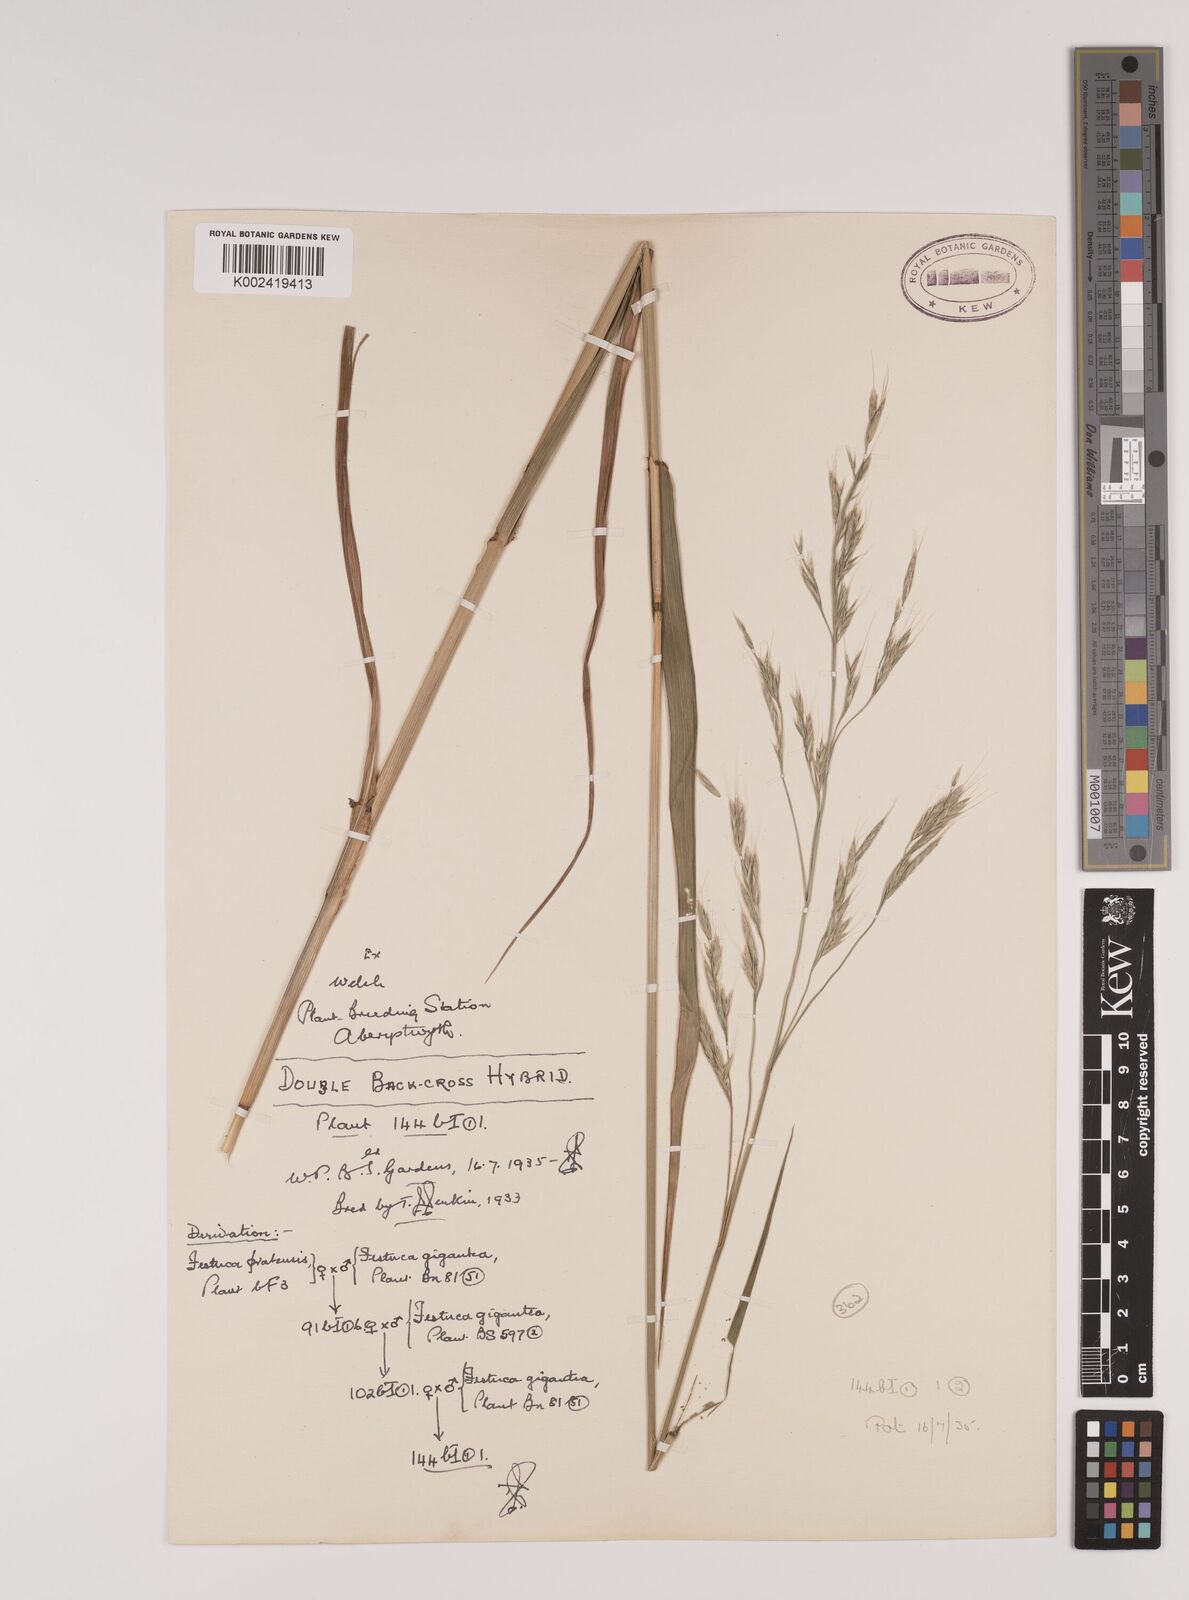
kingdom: Plantae
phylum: Tracheophyta
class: Liliopsida
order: Poales
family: Poaceae
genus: Lolium
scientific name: Lolium giganteum
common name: Giant fescue
